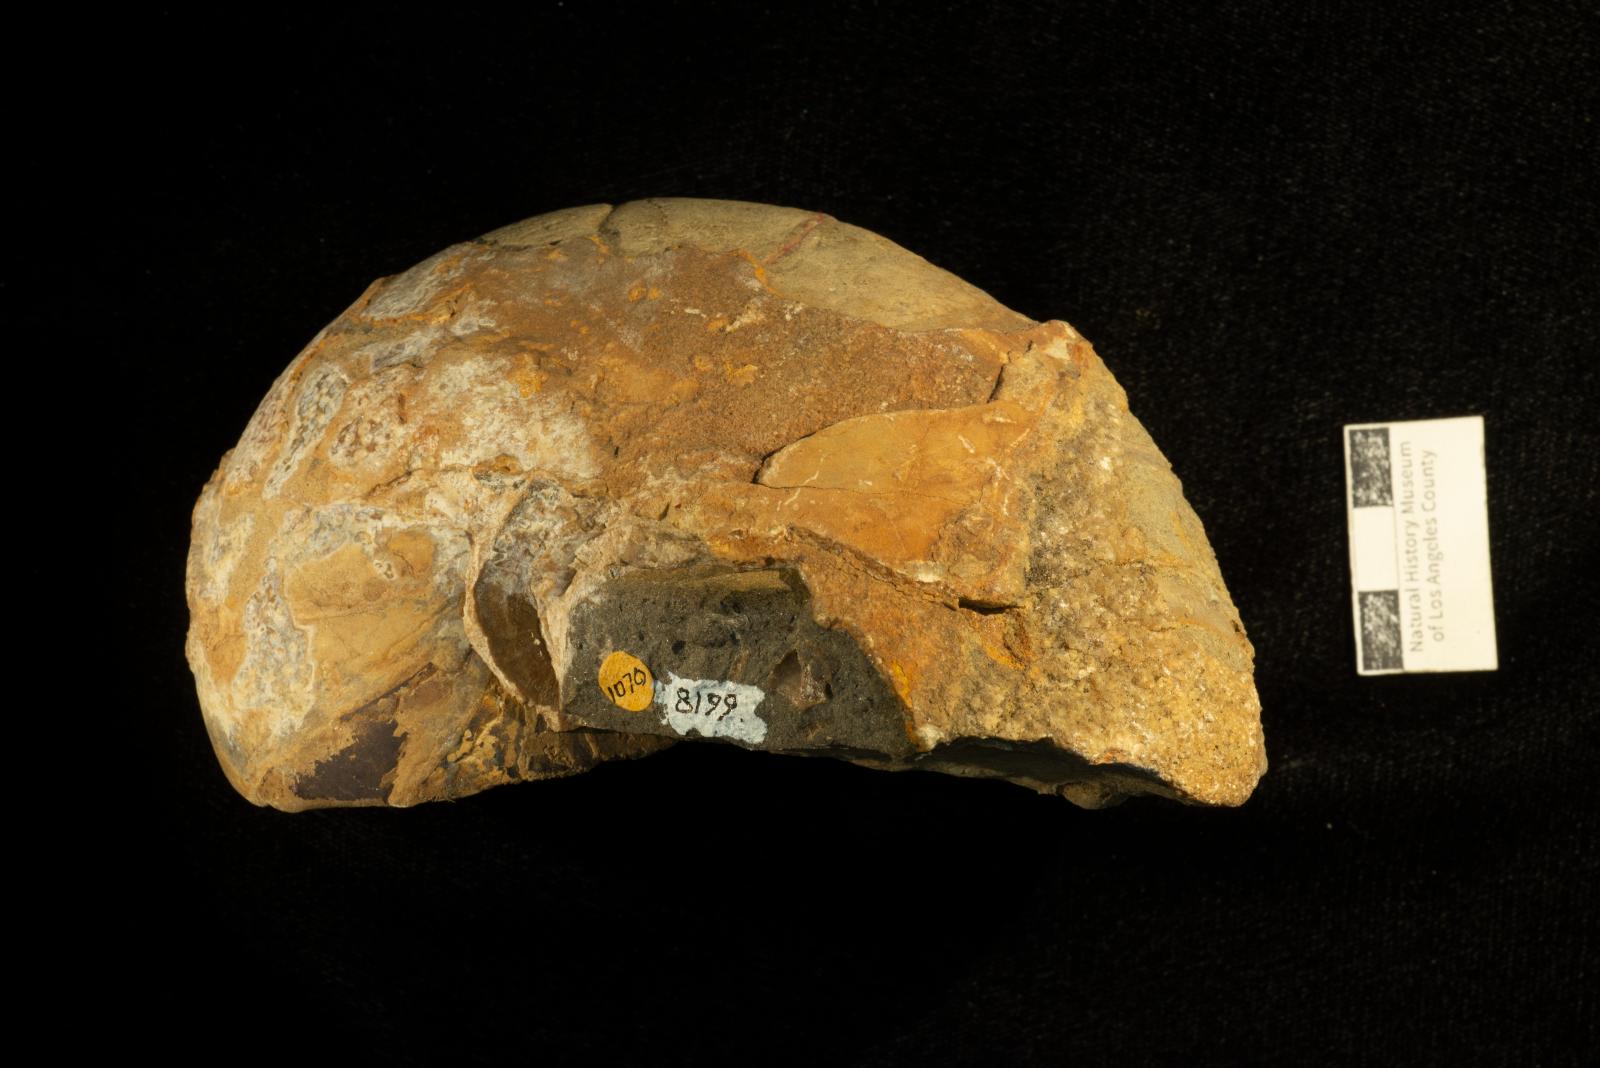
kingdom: Animalia
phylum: Mollusca
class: Cephalopoda
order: Nautilida
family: Nautilidae
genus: Eutrephoceras
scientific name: Eutrephoceras
